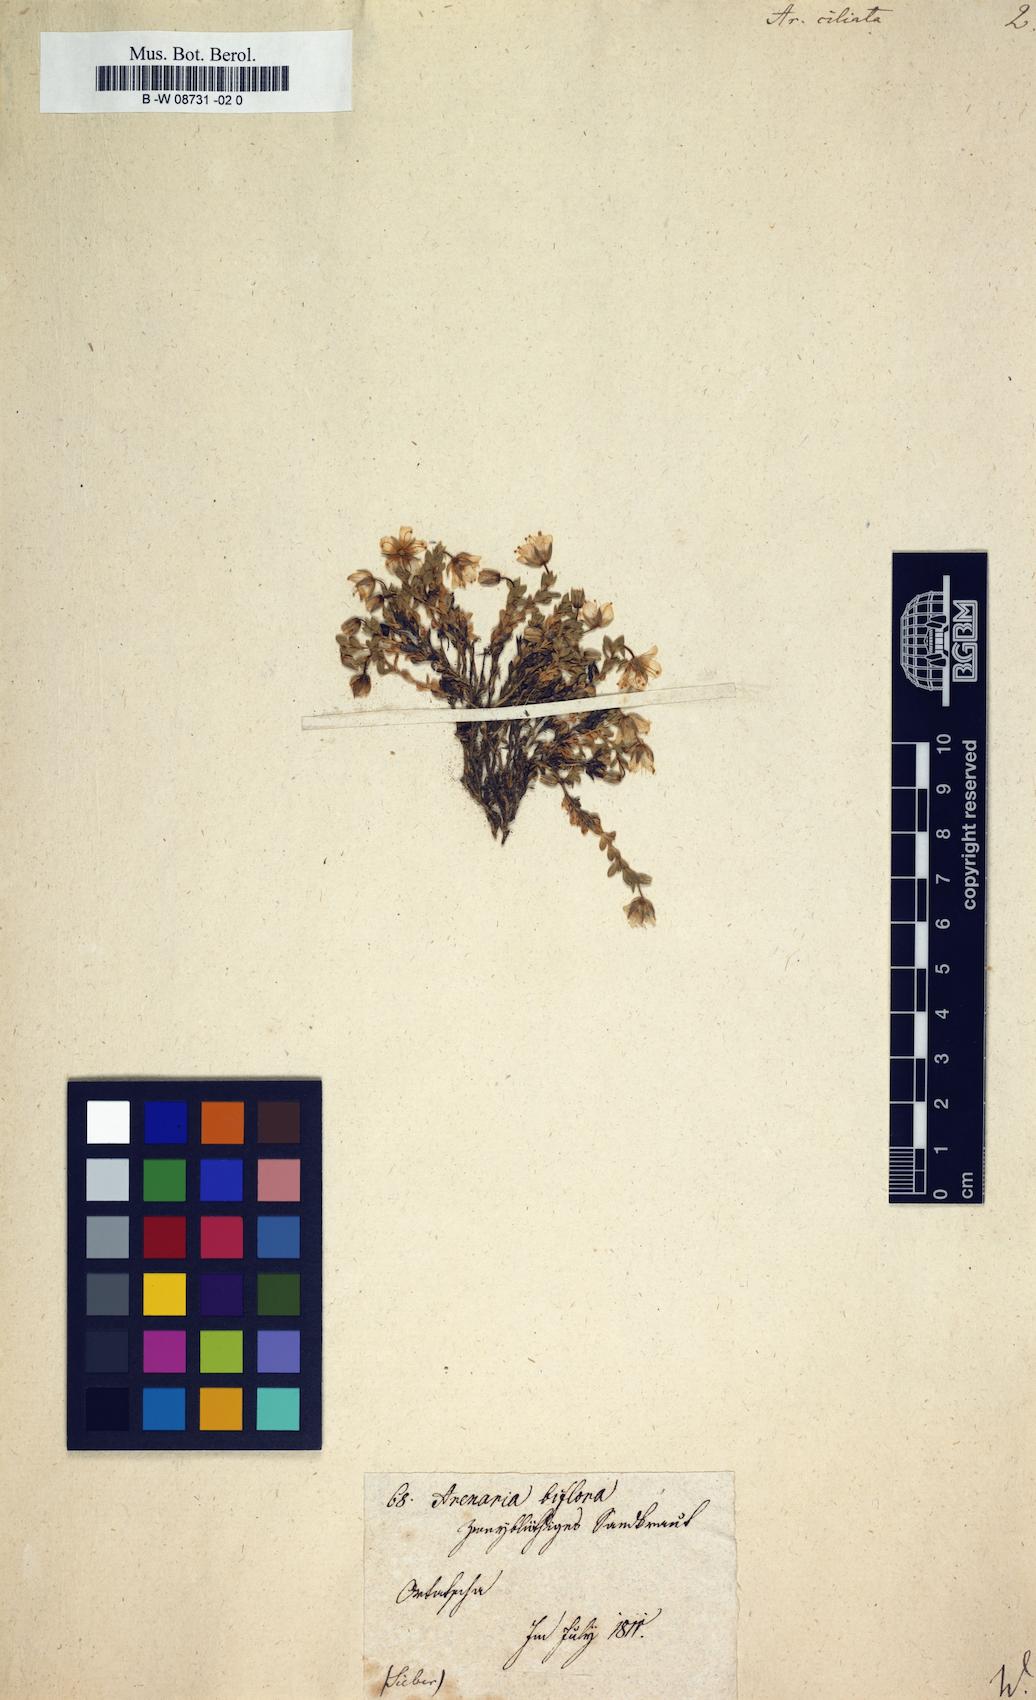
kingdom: Plantae
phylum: Tracheophyta
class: Magnoliopsida
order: Caryophyllales
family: Caryophyllaceae
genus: Arenaria
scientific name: Arenaria ciliata
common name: Fringed sandwort
